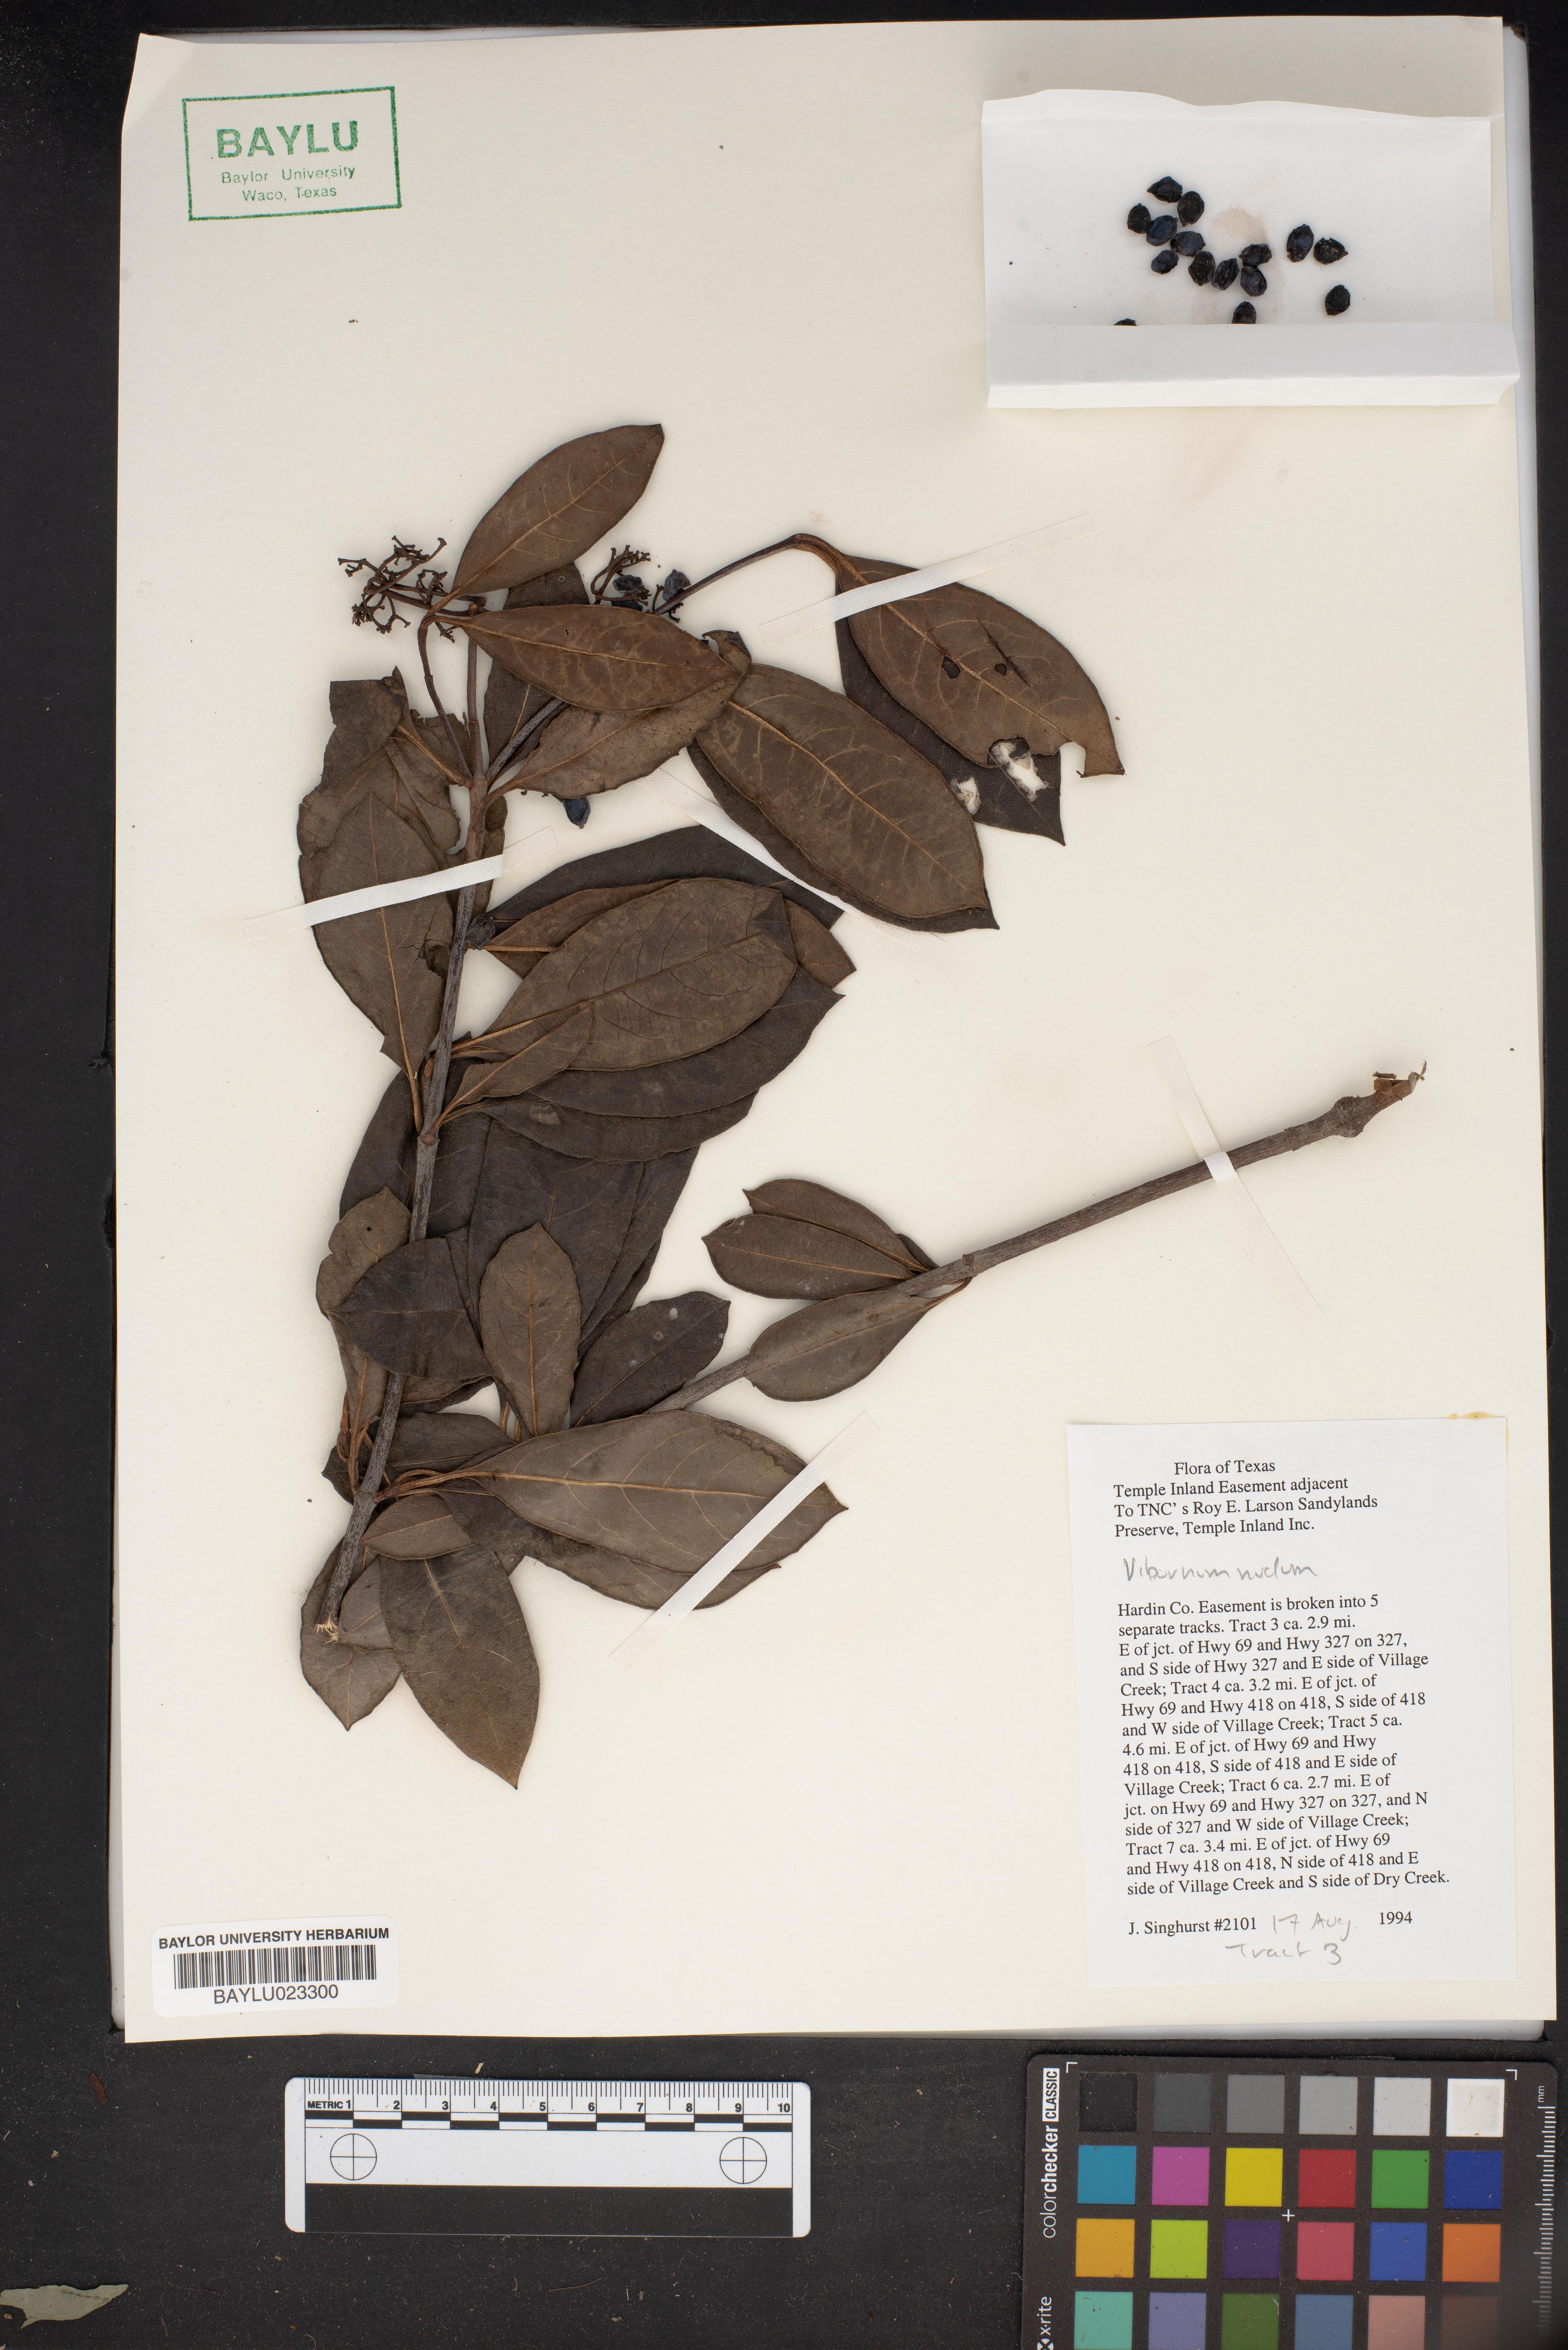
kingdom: Plantae
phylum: Tracheophyta
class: Magnoliopsida
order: Dipsacales
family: Viburnaceae
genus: Viburnum
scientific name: Viburnum nudum
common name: Possum haw
